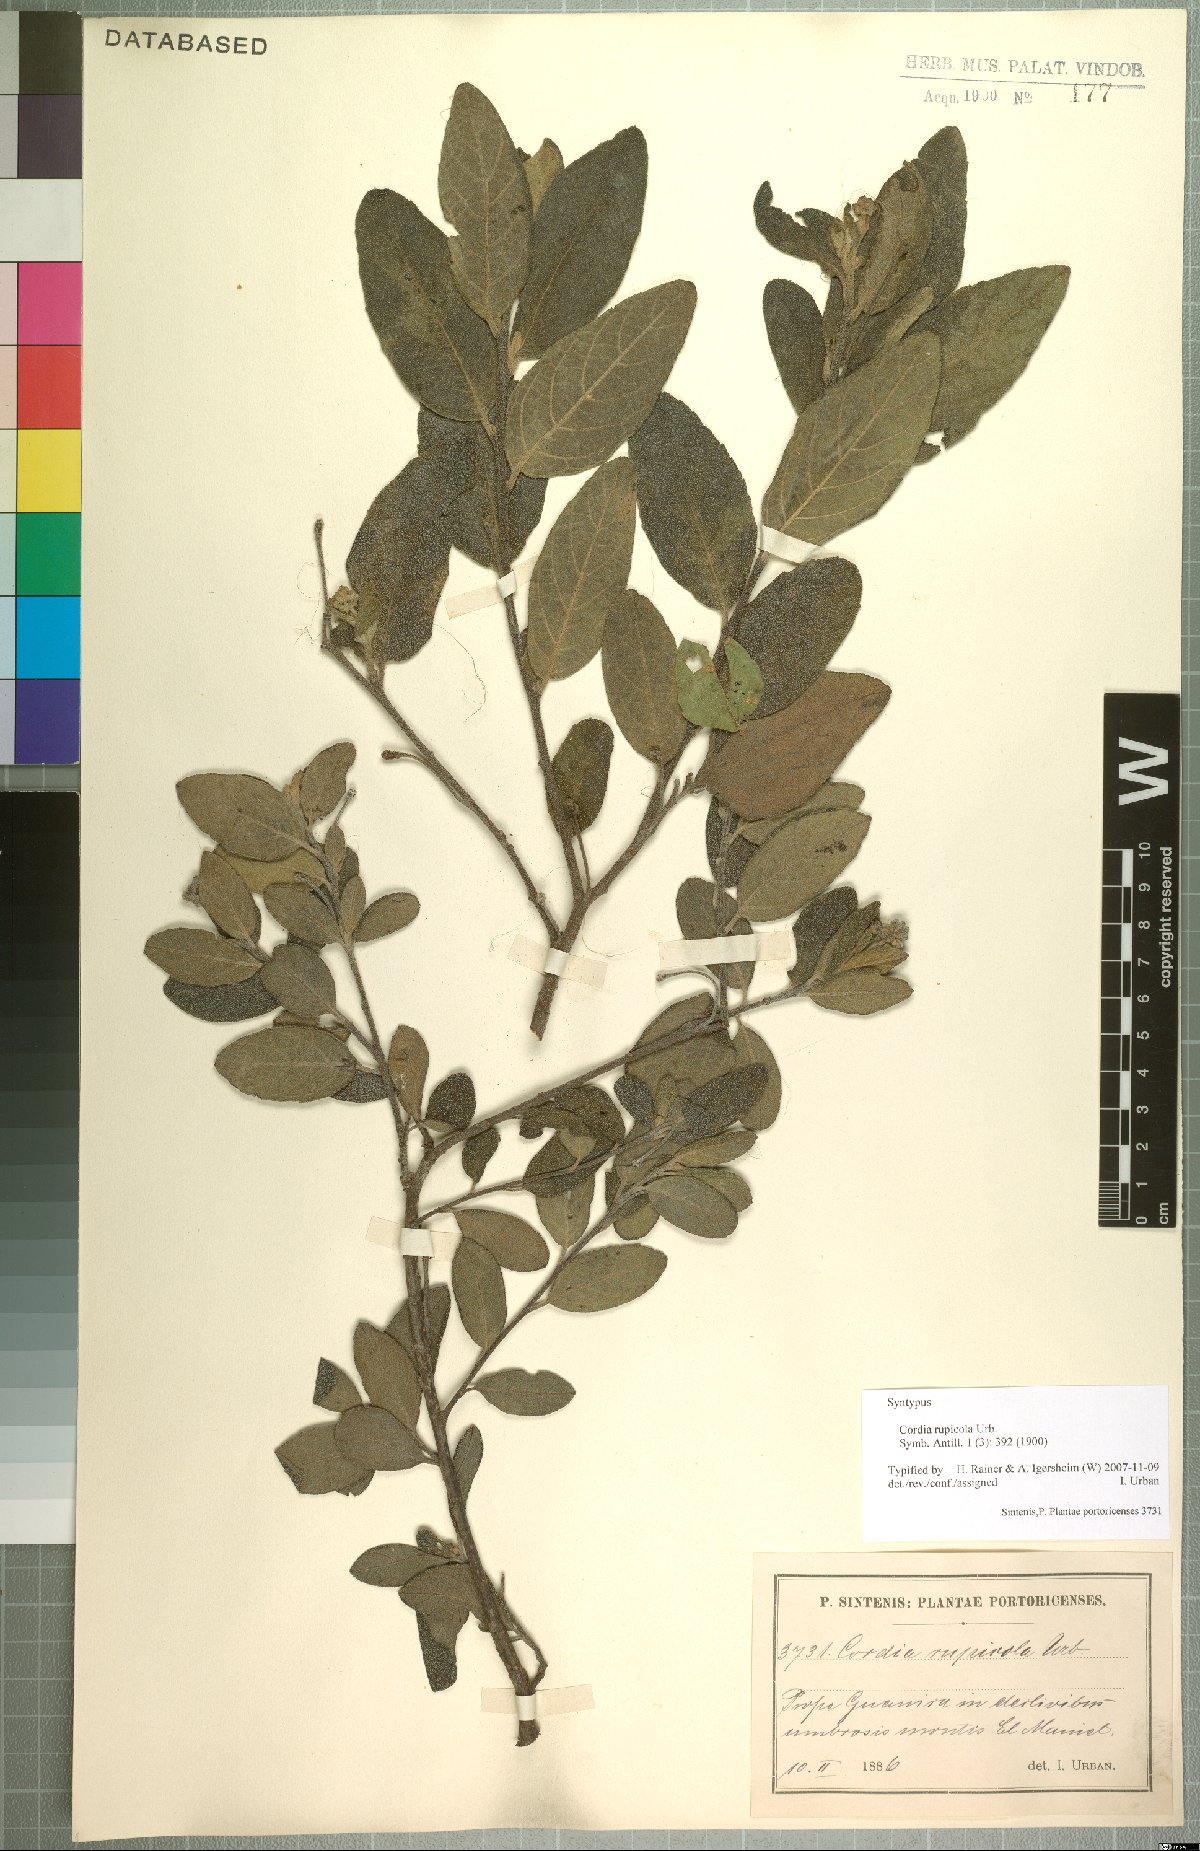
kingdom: Plantae
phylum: Tracheophyta
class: Magnoliopsida
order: Boraginales
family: Cordiaceae
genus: Varronia
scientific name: Varronia rupicola
